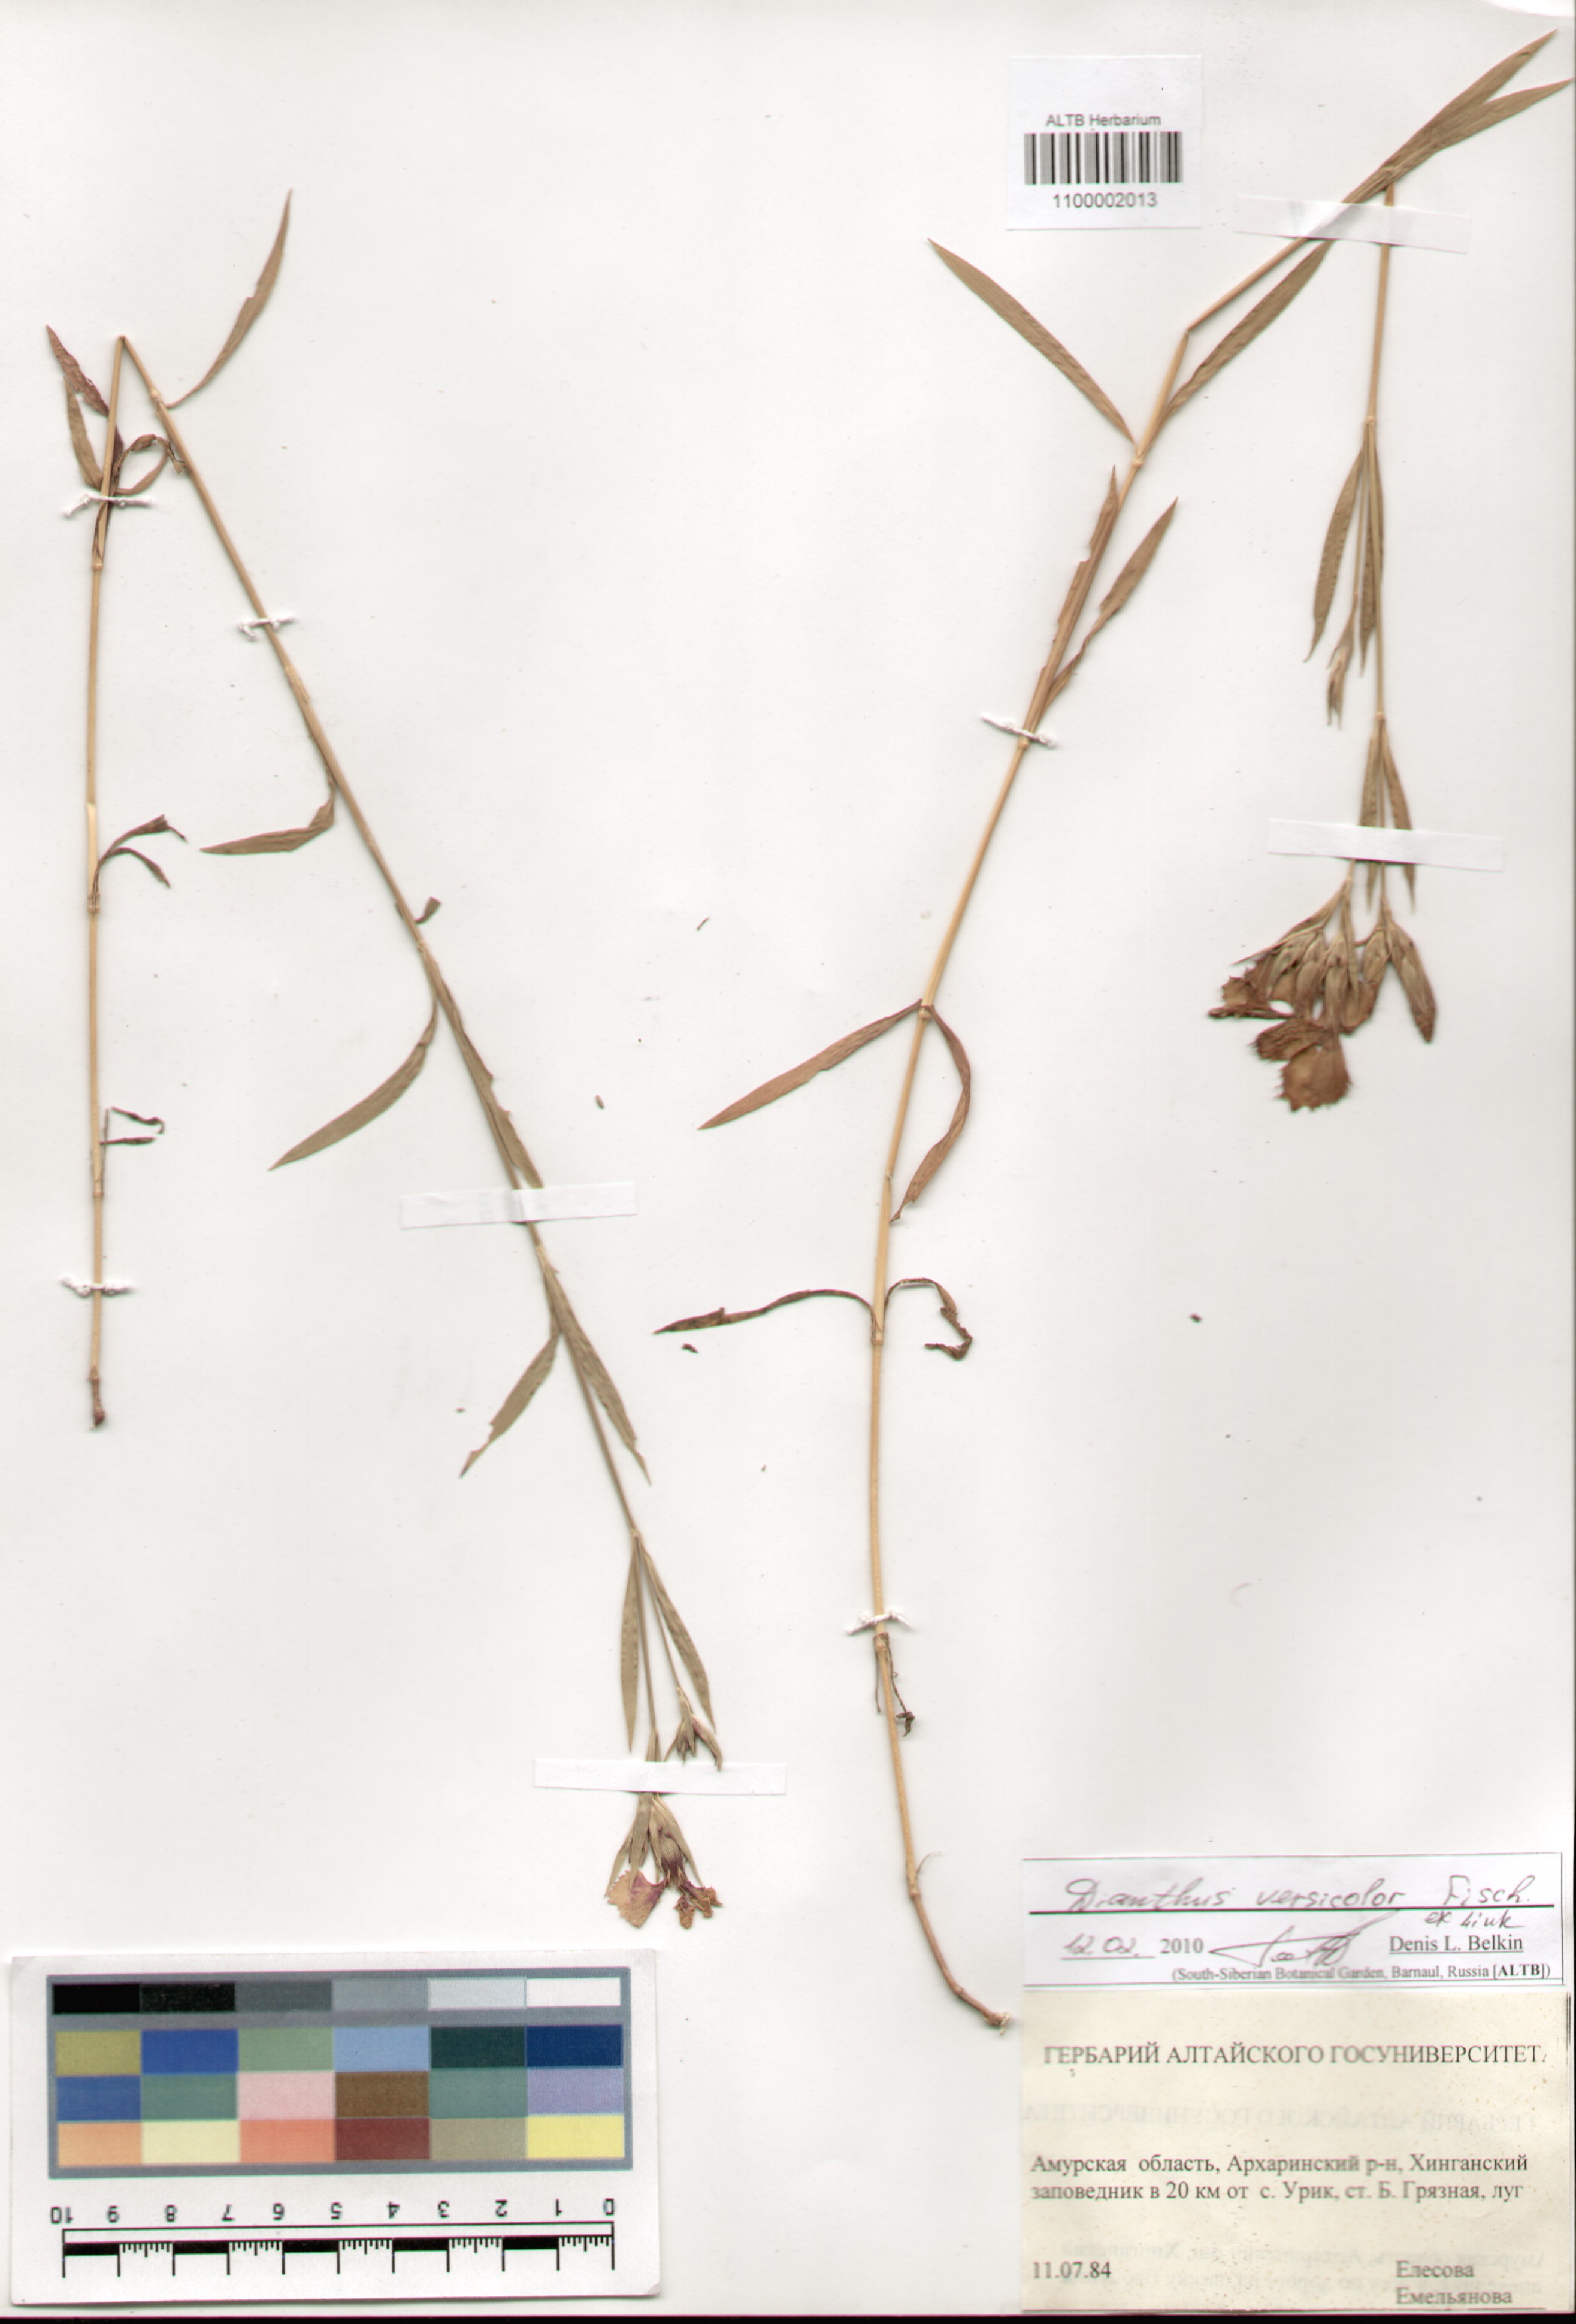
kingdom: Plantae
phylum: Tracheophyta
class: Magnoliopsida
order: Caryophyllales
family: Caryophyllaceae
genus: Dianthus
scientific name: Dianthus chinensis
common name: Rainbow pink
